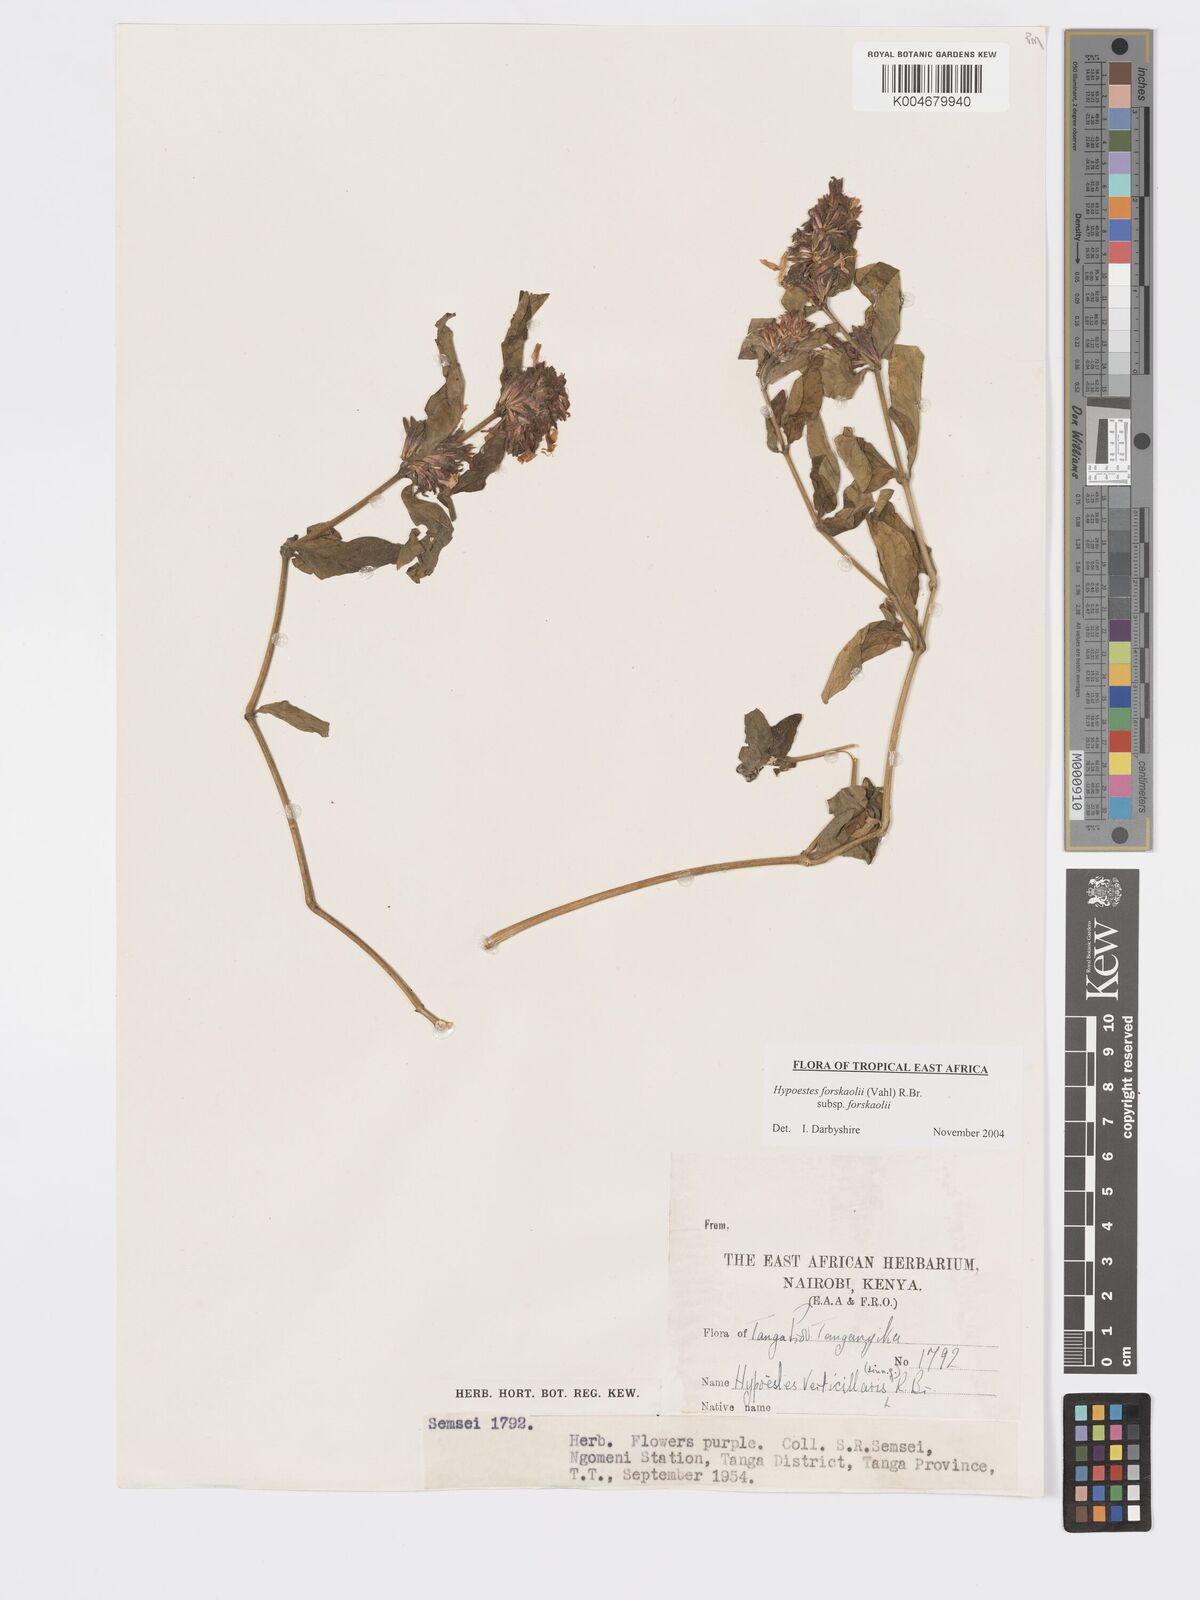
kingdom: Plantae
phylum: Tracheophyta
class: Magnoliopsida
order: Lamiales
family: Acanthaceae
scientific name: Acanthaceae
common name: Acanthaceae
